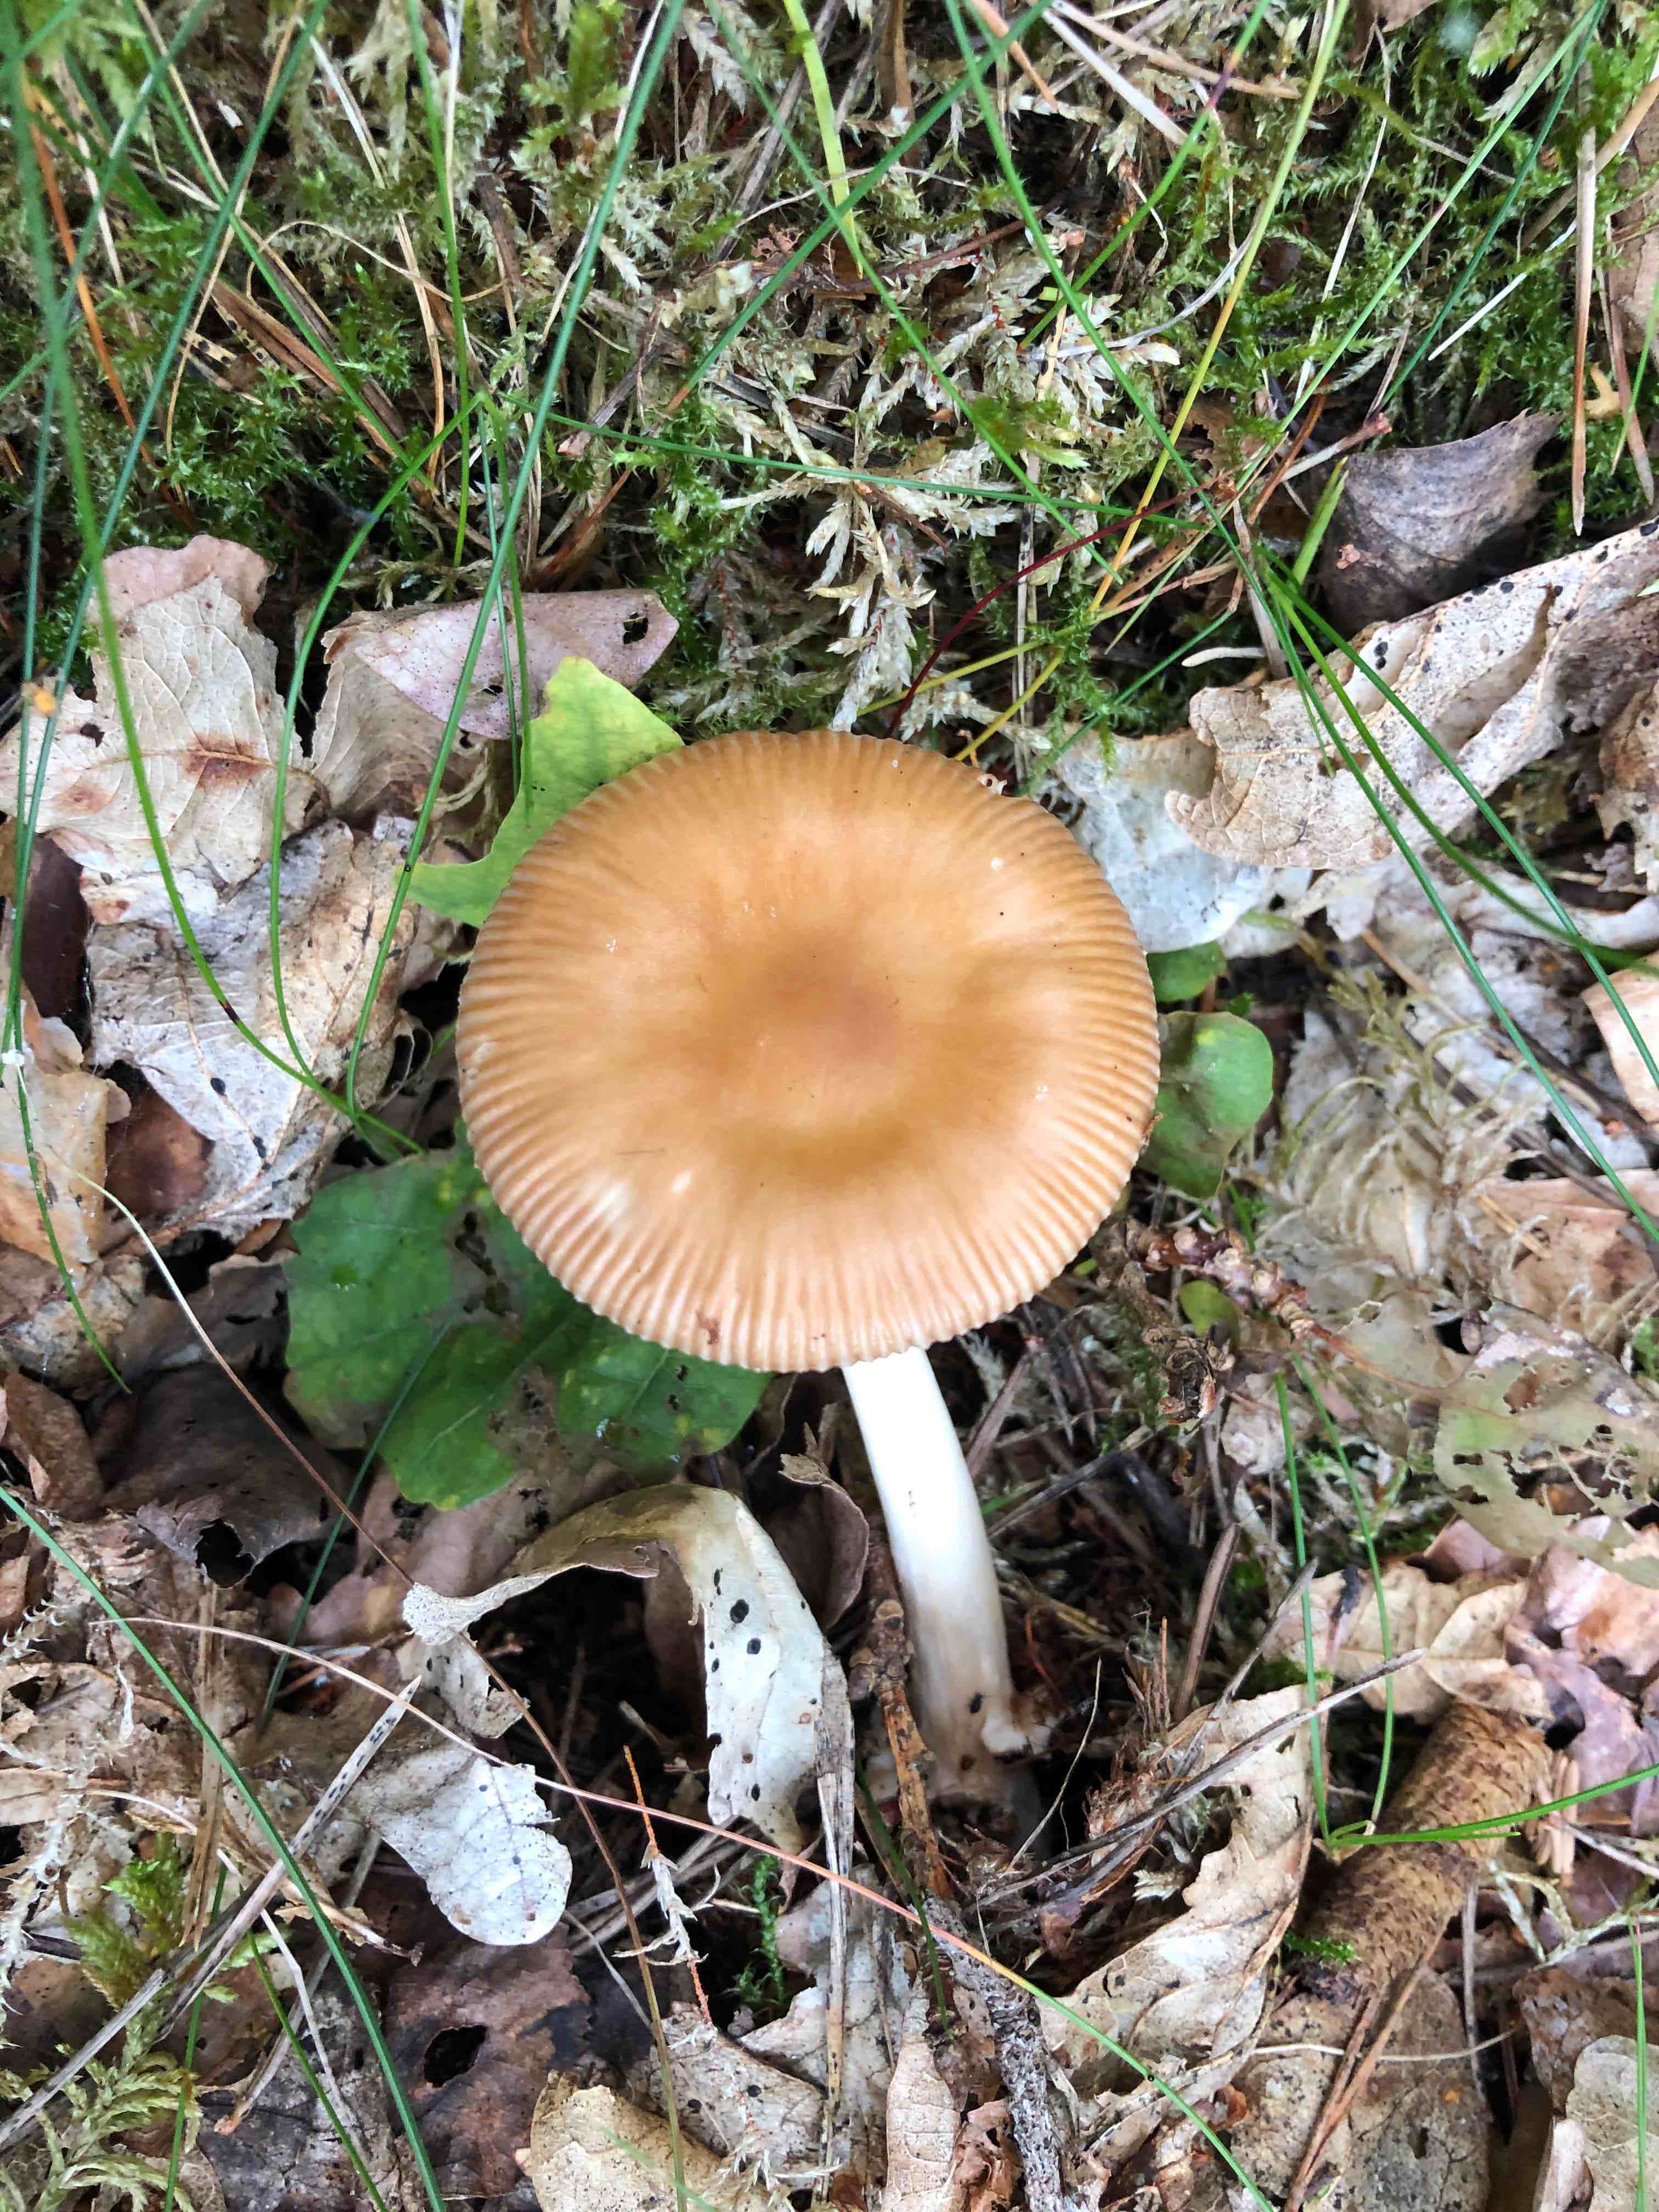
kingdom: Fungi
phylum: Basidiomycota
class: Agaricomycetes
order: Agaricales
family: Amanitaceae
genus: Amanita
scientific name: Amanita fulva
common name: brun kam-fluesvamp
